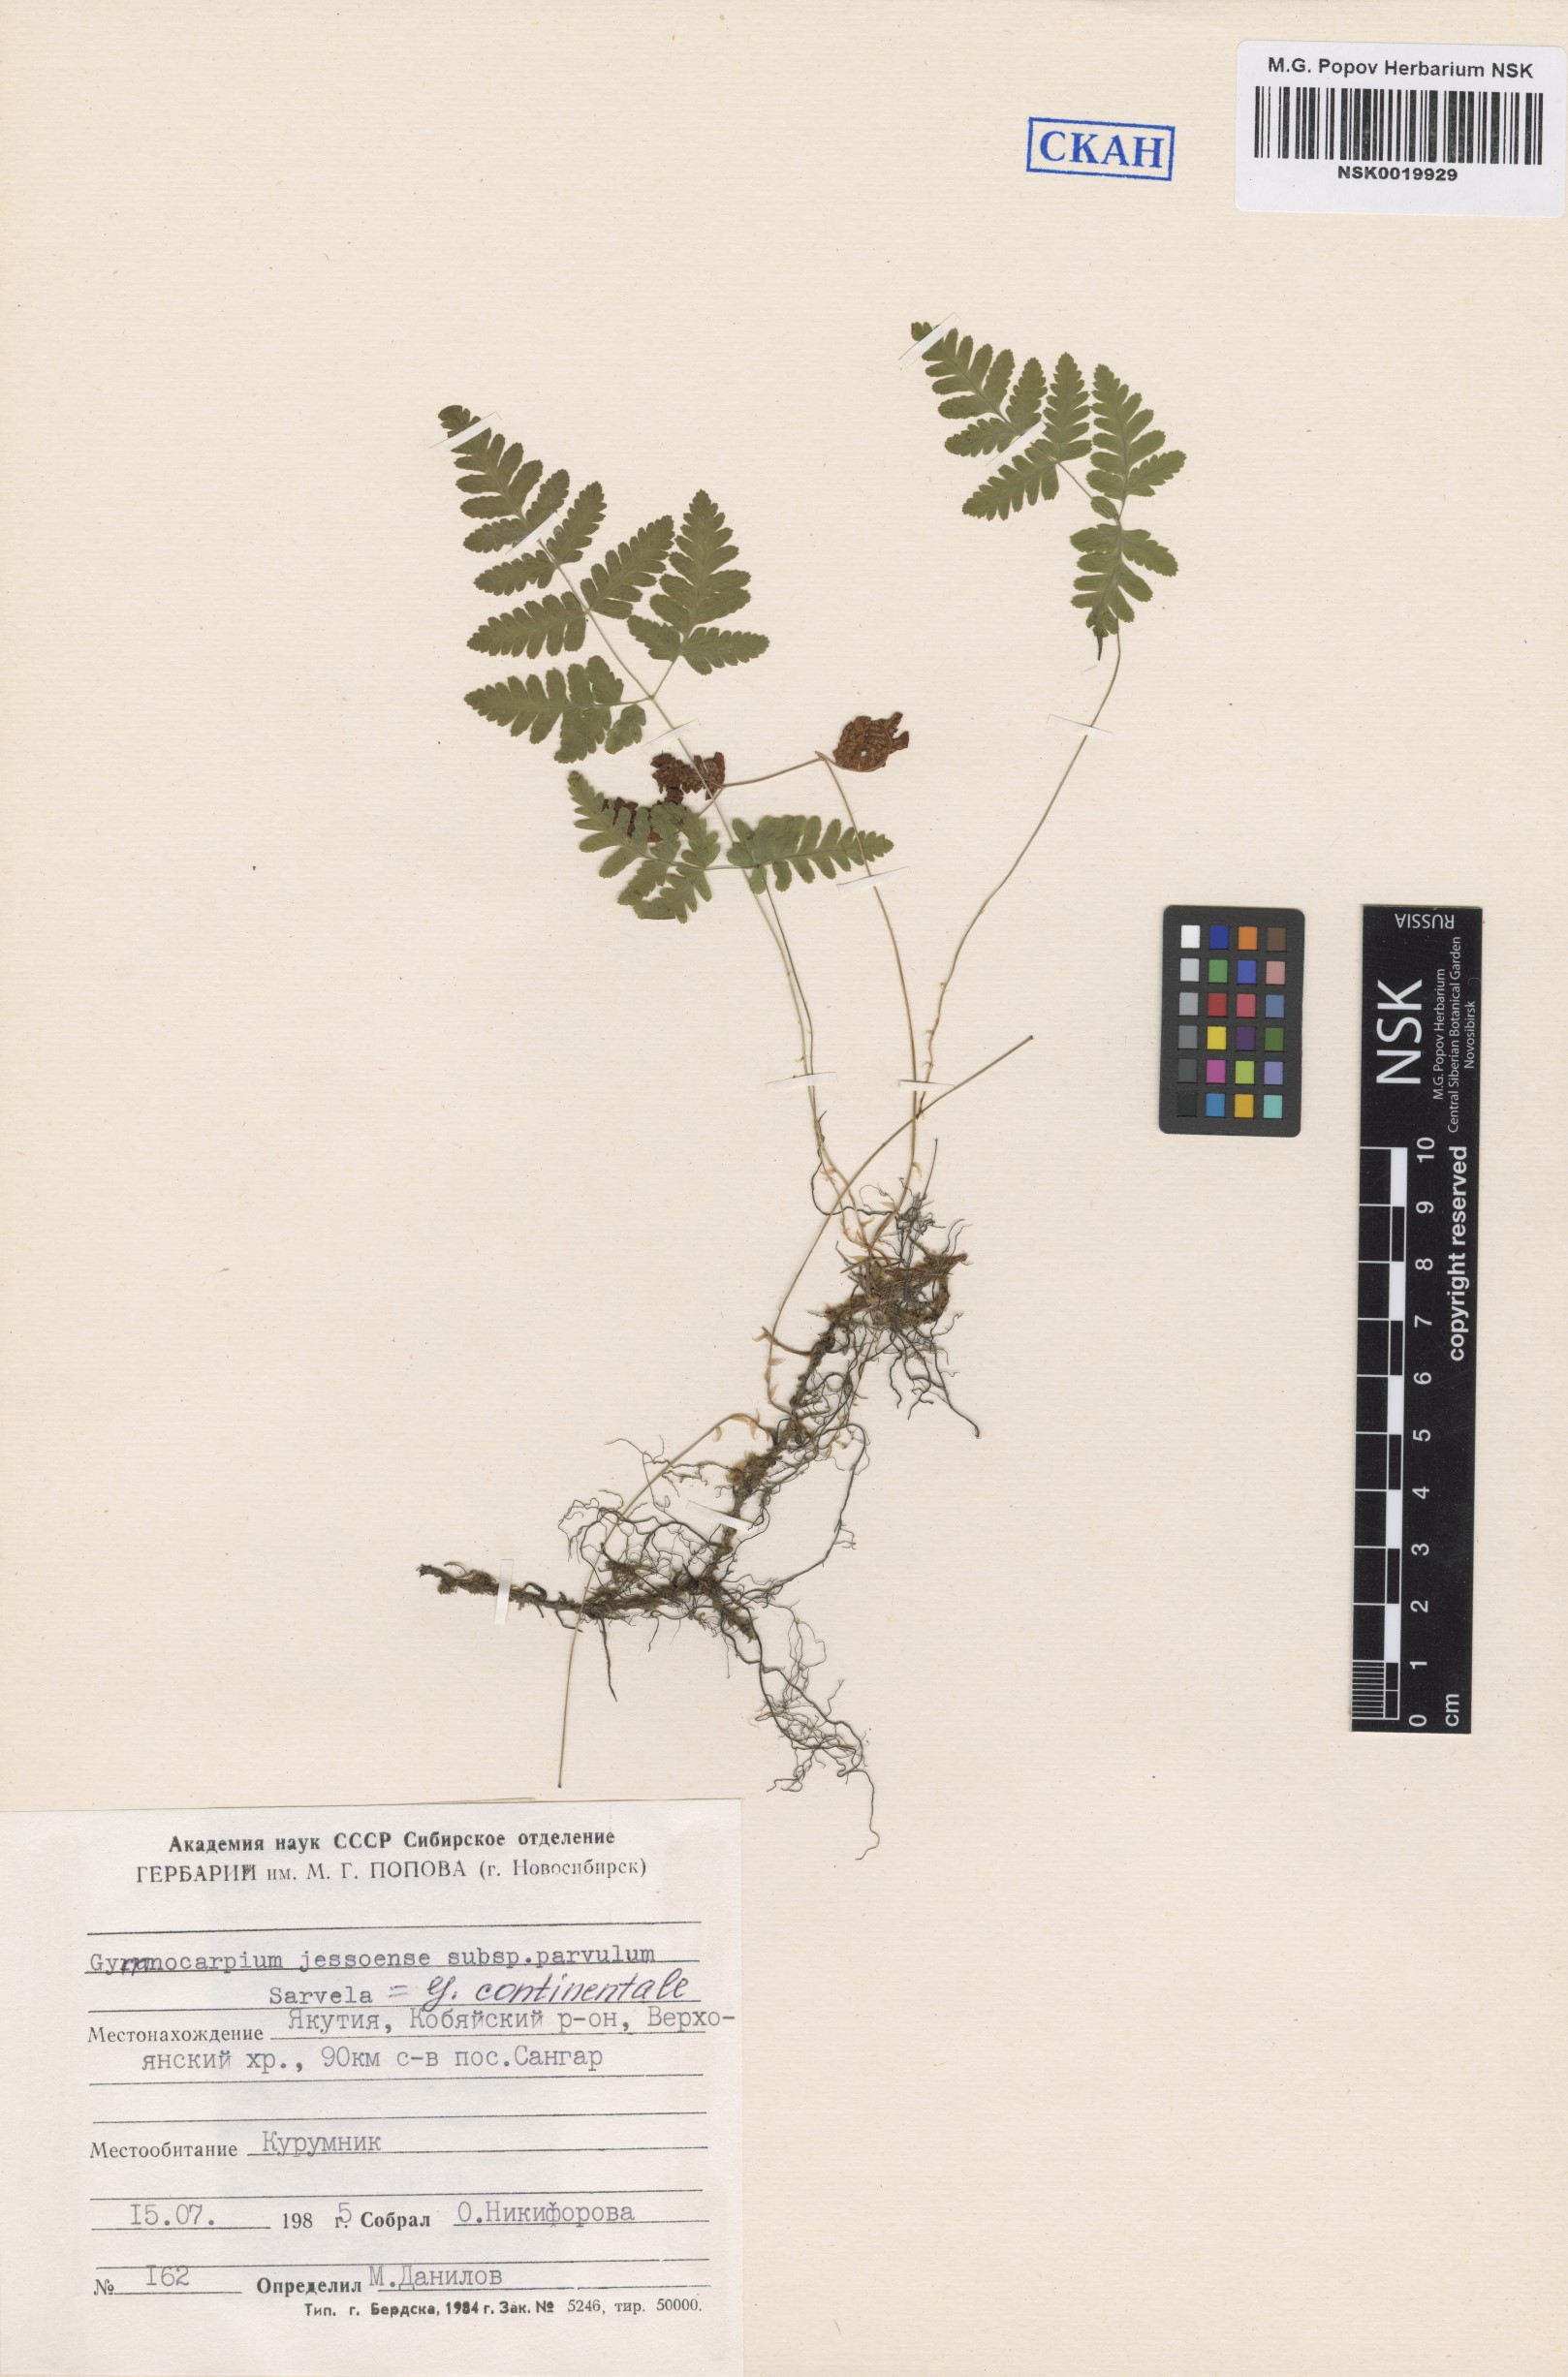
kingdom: Plantae
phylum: Tracheophyta
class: Polypodiopsida
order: Polypodiales
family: Cystopteridaceae
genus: Gymnocarpium
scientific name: Gymnocarpium continentale
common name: Asian oak fern
